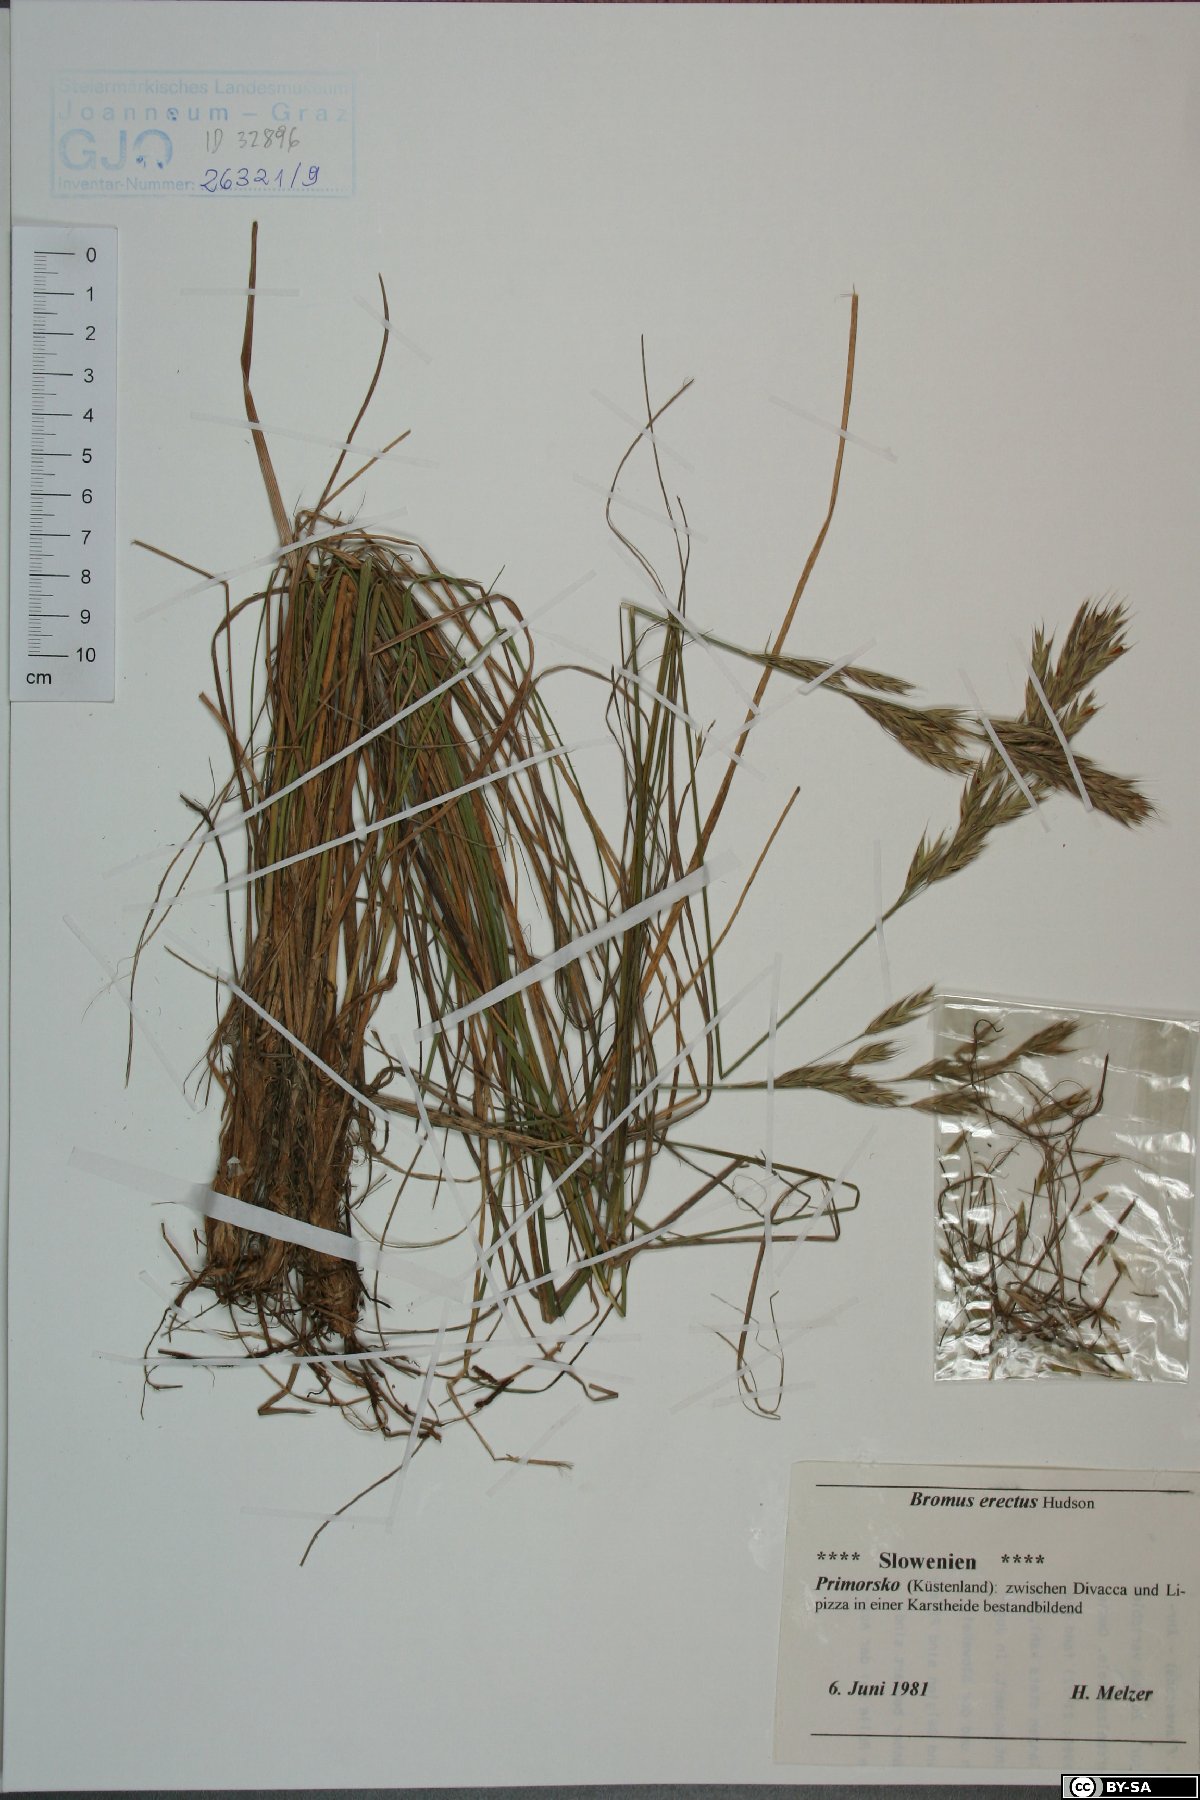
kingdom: Plantae
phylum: Tracheophyta
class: Liliopsida
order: Poales
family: Poaceae
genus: Bromus
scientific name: Bromus erectus
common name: Erect brome
